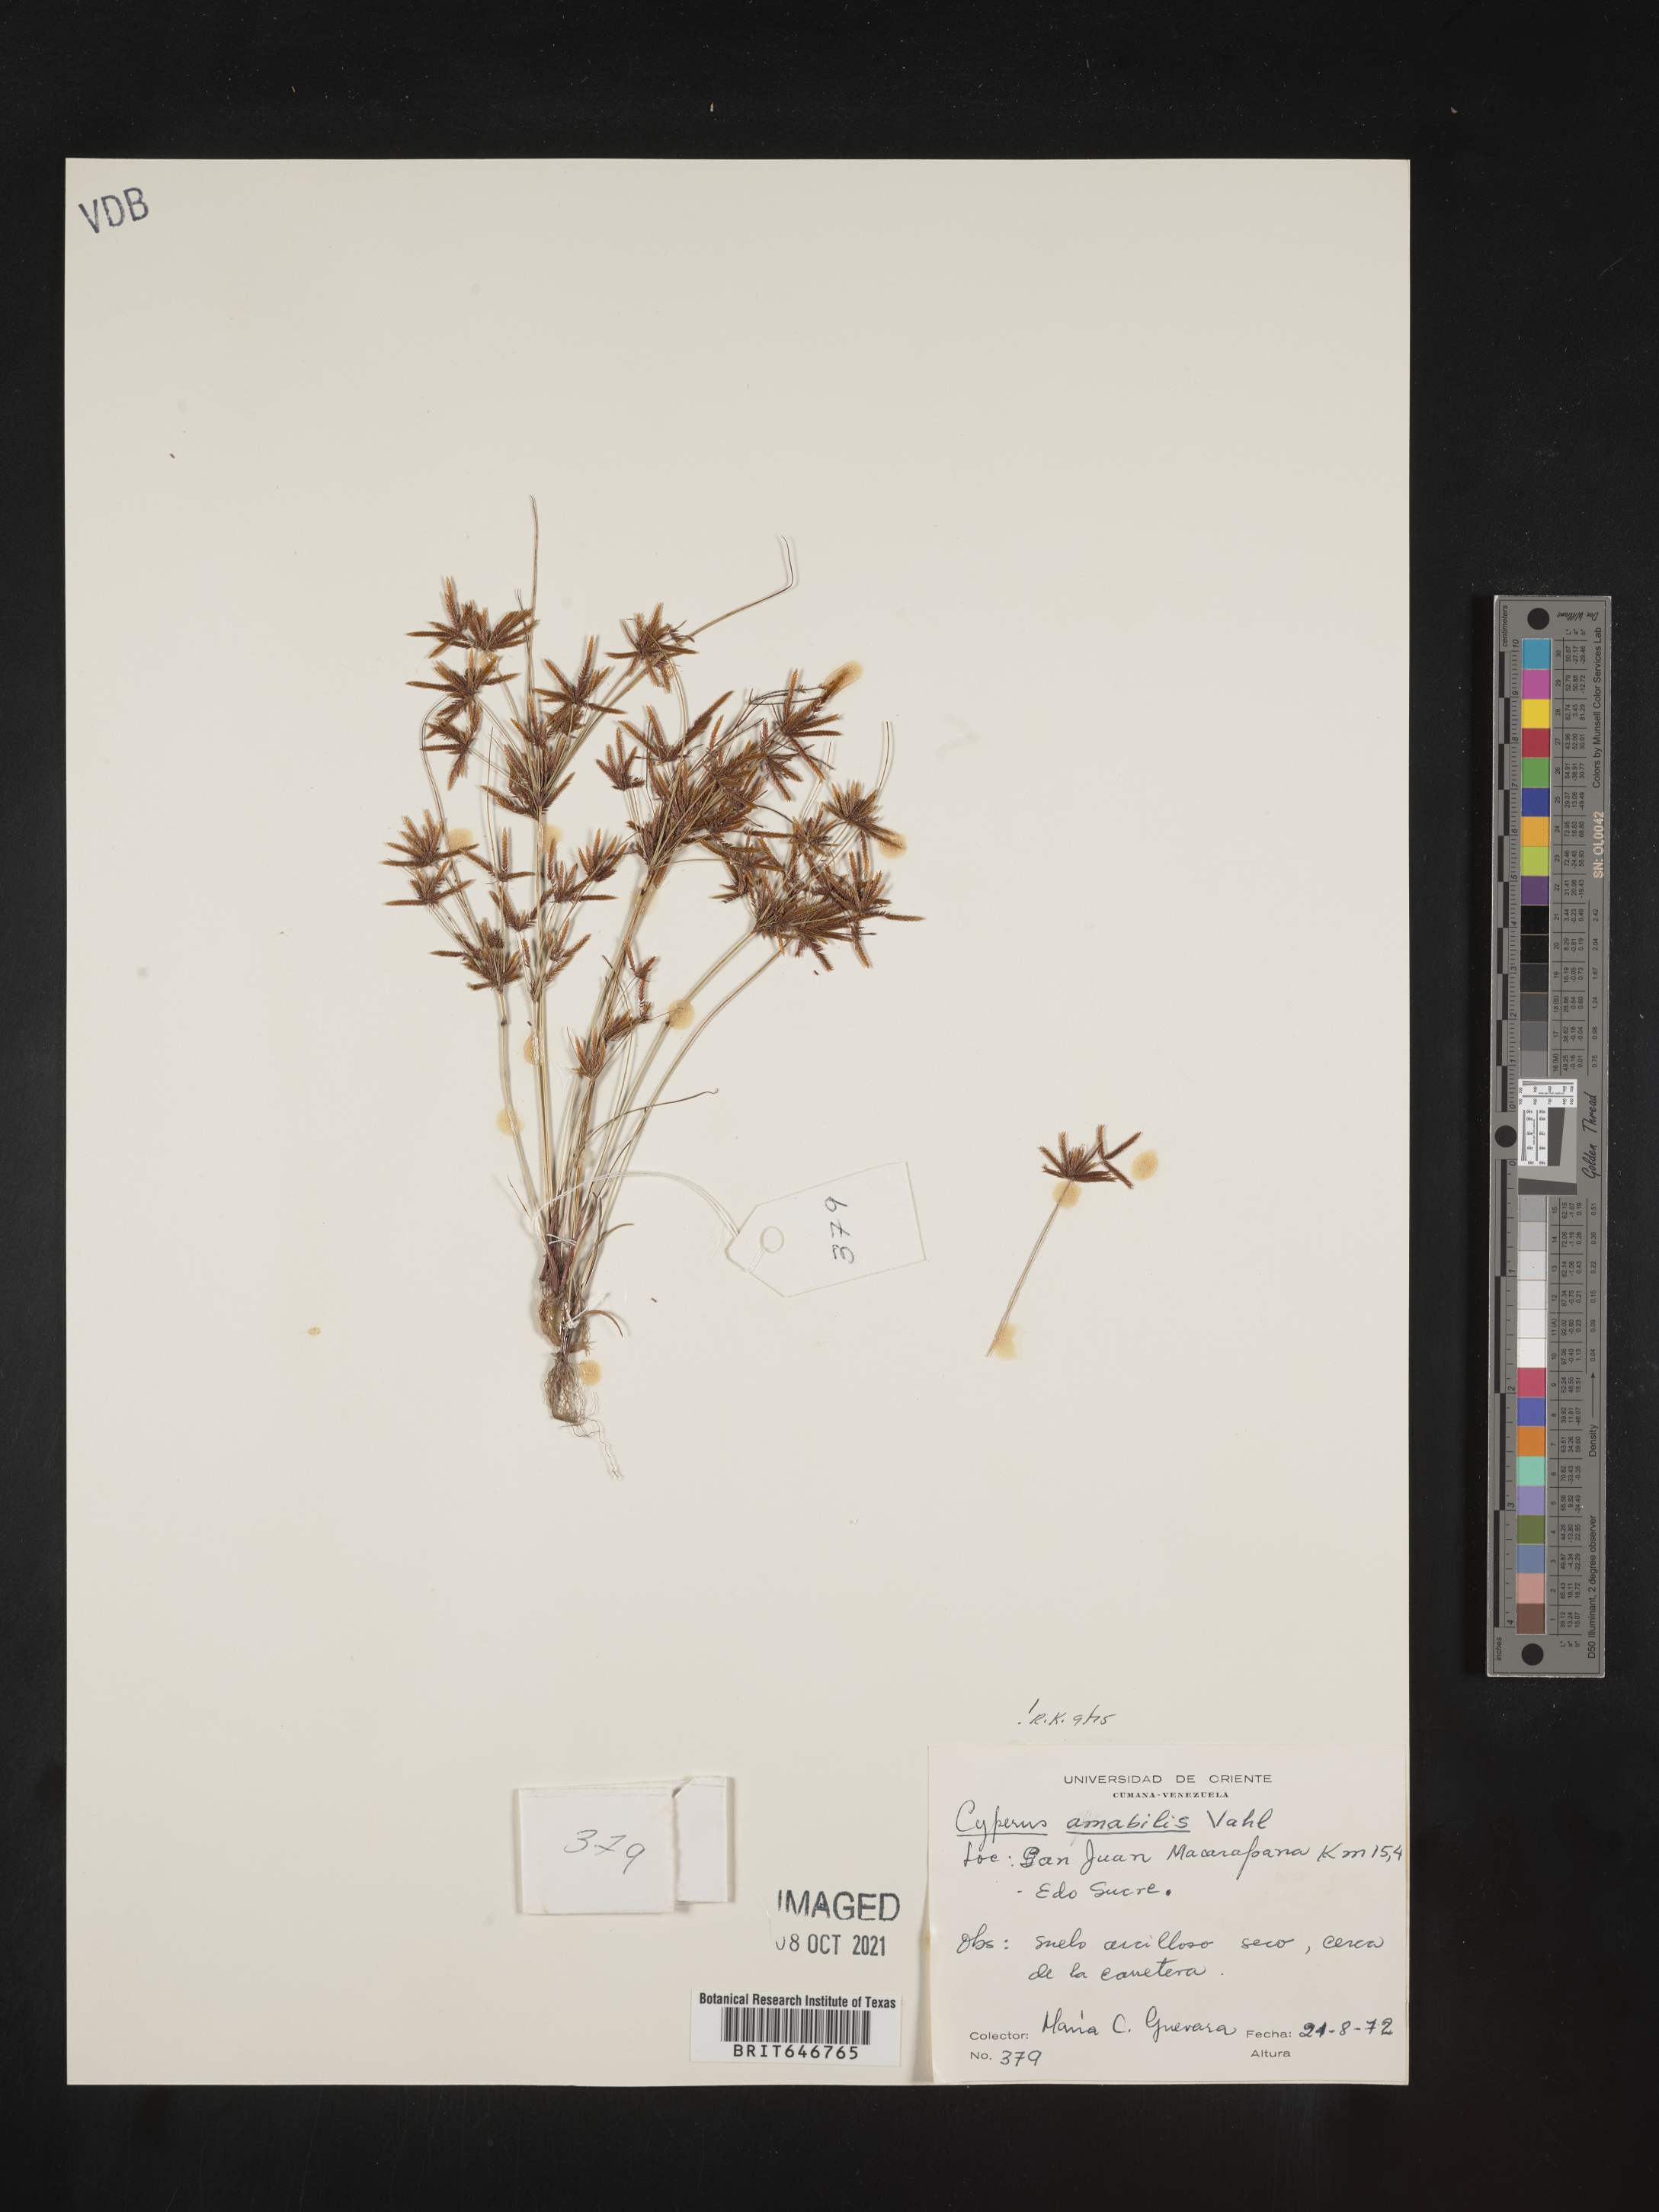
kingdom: Plantae
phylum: Tracheophyta
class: Liliopsida
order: Poales
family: Cyperaceae
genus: Cyperus
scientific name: Cyperus amabilis
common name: Foothill flat sedge
